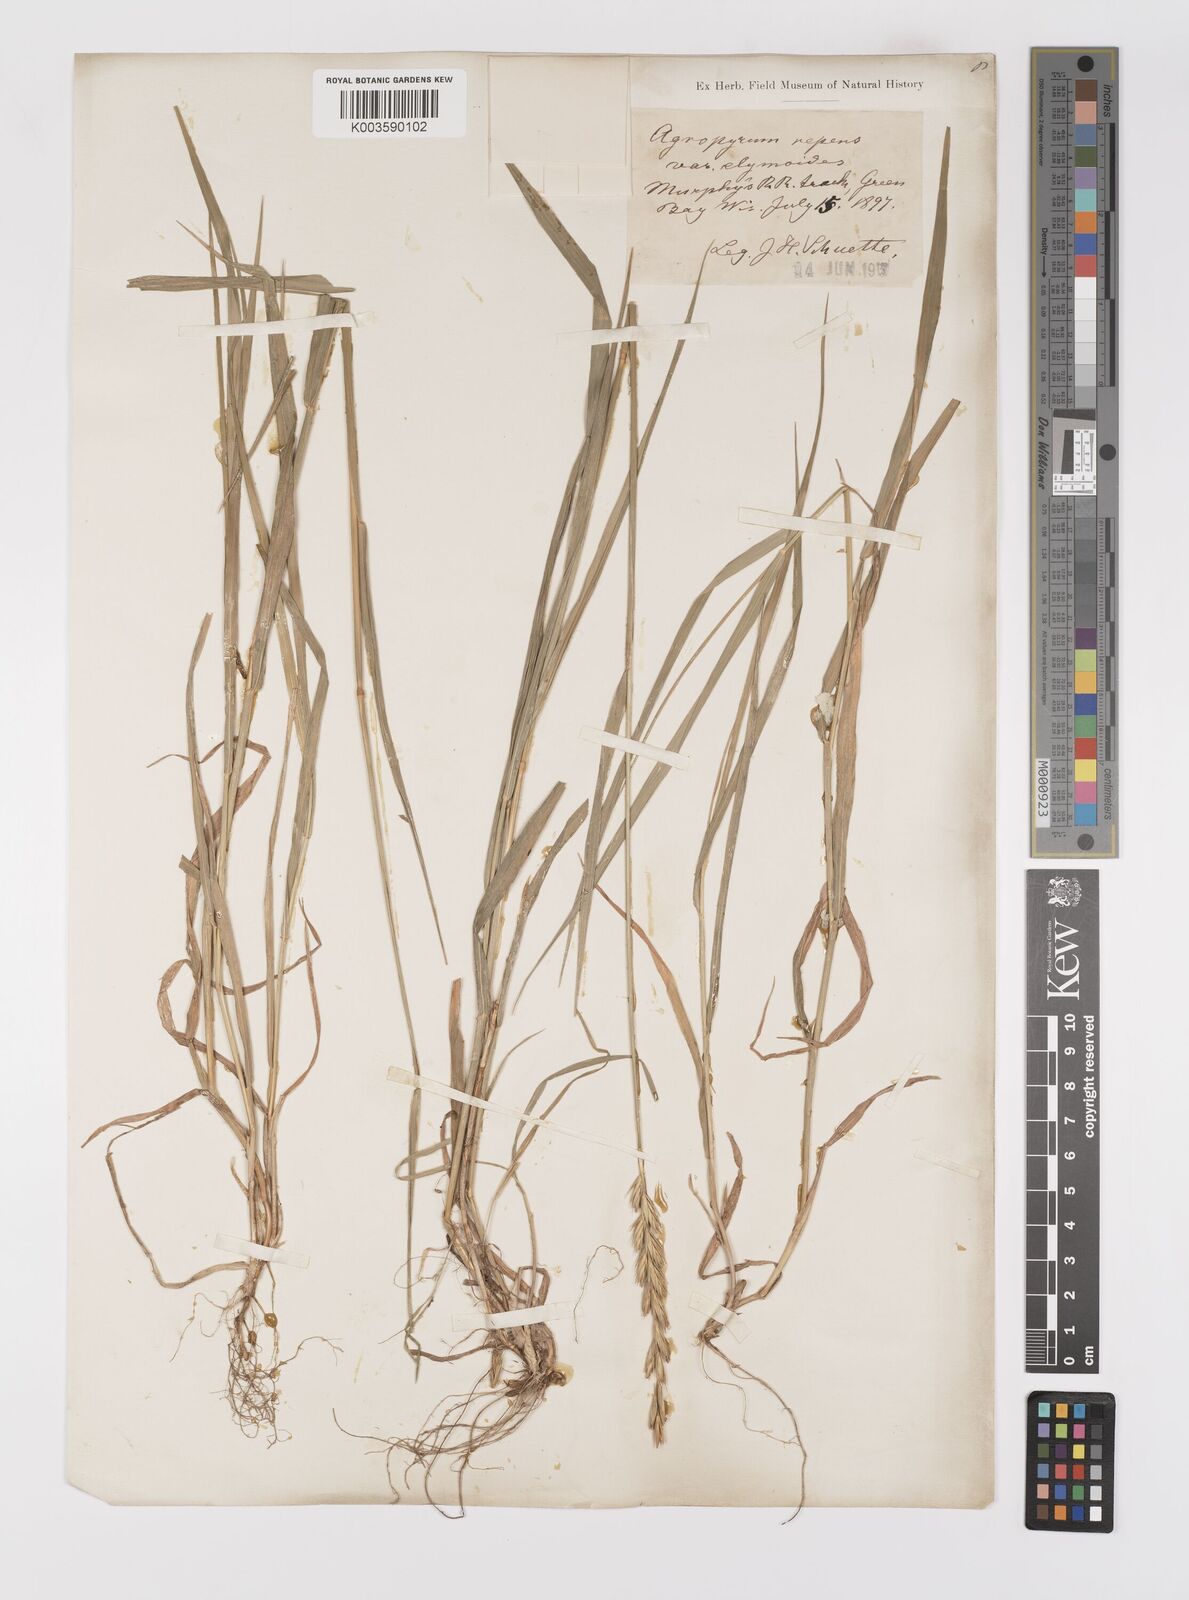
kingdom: Plantae
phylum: Tracheophyta
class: Liliopsida
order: Poales
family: Poaceae
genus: Elymus
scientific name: Elymus repens
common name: Quackgrass
